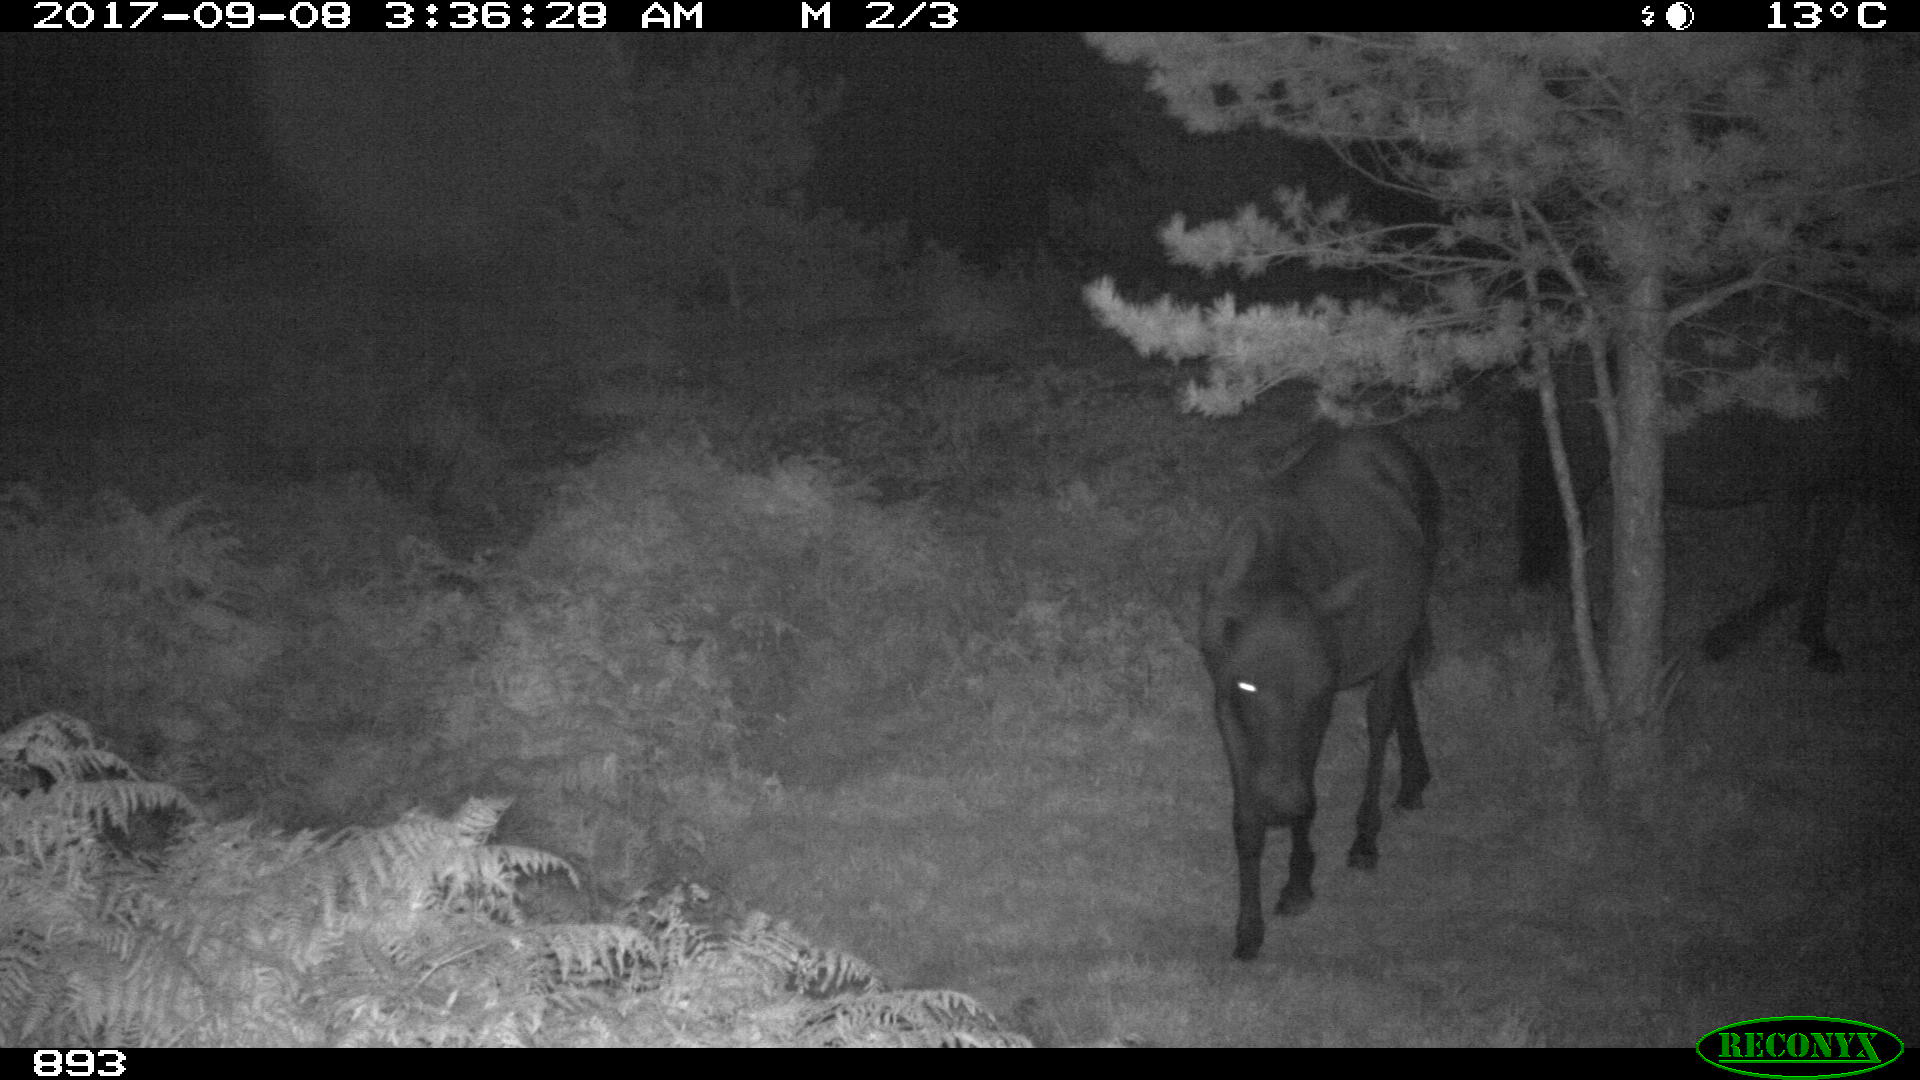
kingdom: Animalia
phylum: Chordata
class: Mammalia
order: Perissodactyla
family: Equidae
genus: Equus
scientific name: Equus caballus
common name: Horse
